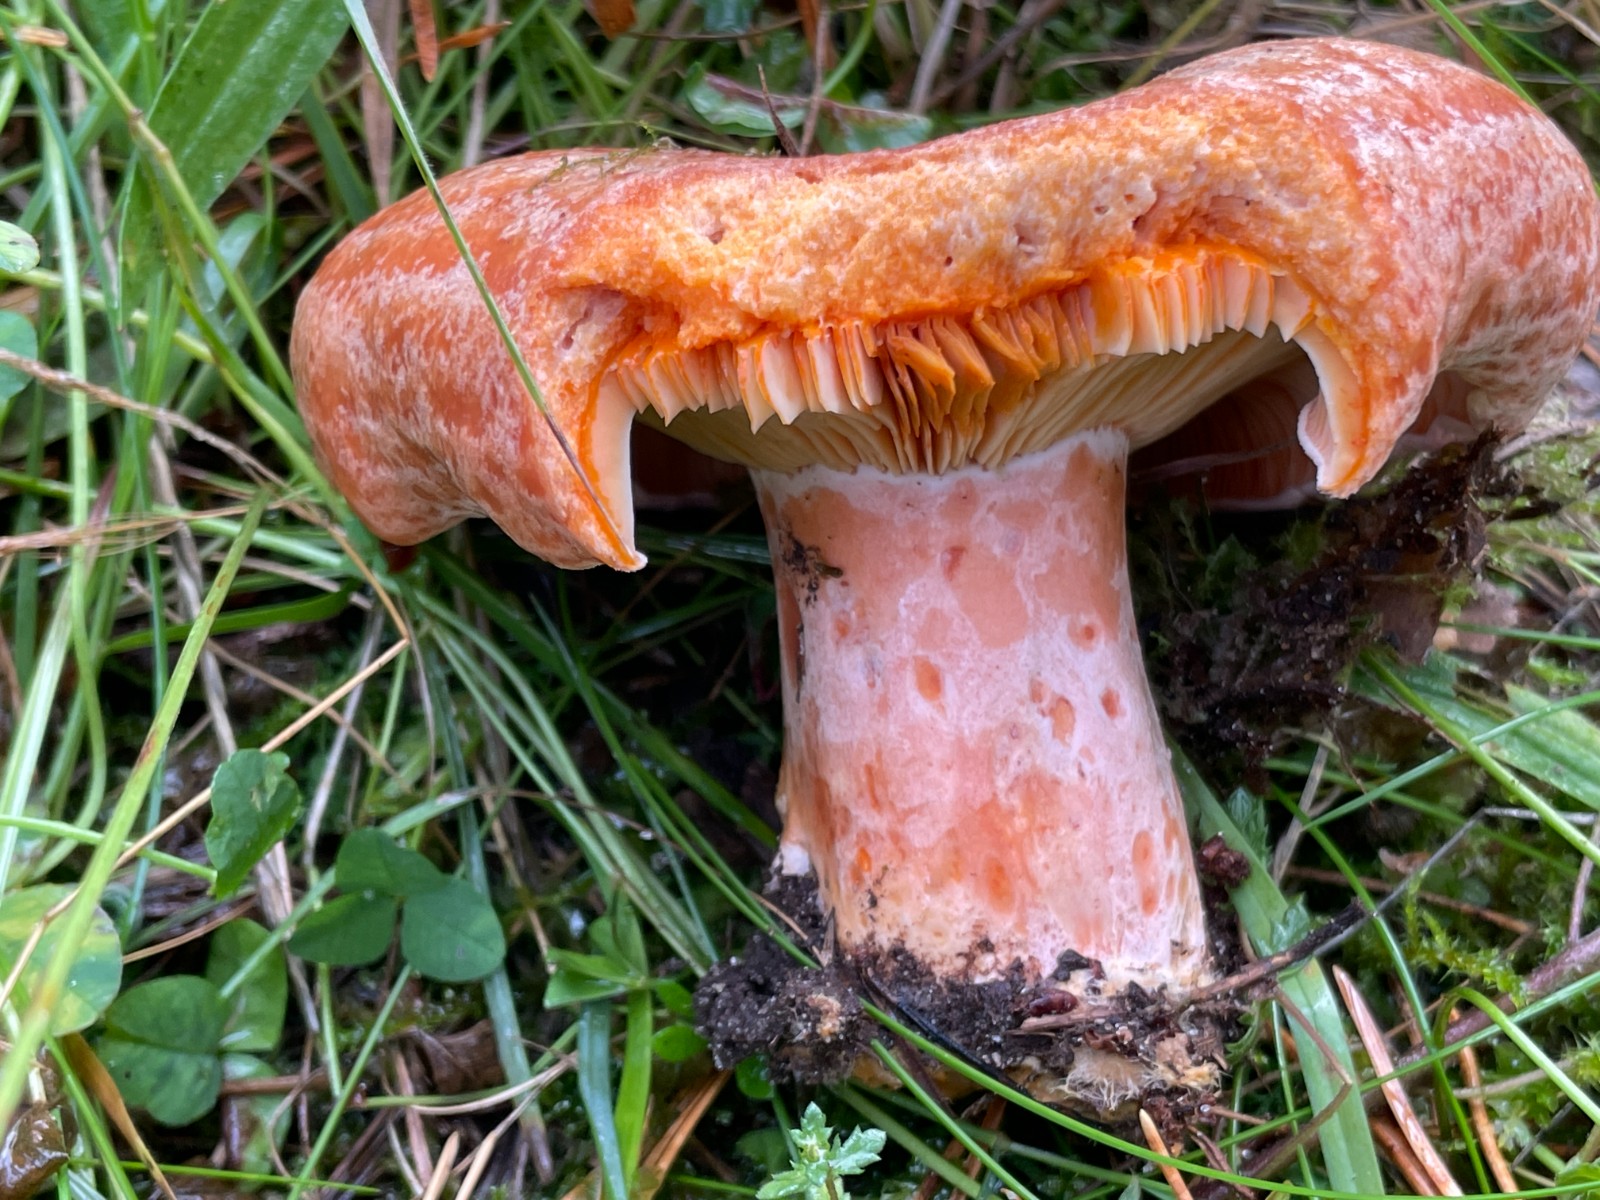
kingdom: Fungi
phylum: Basidiomycota
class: Agaricomycetes
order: Russulales
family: Russulaceae
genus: Lactarius
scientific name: Lactarius deliciosus
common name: velsmagende mælkehat
